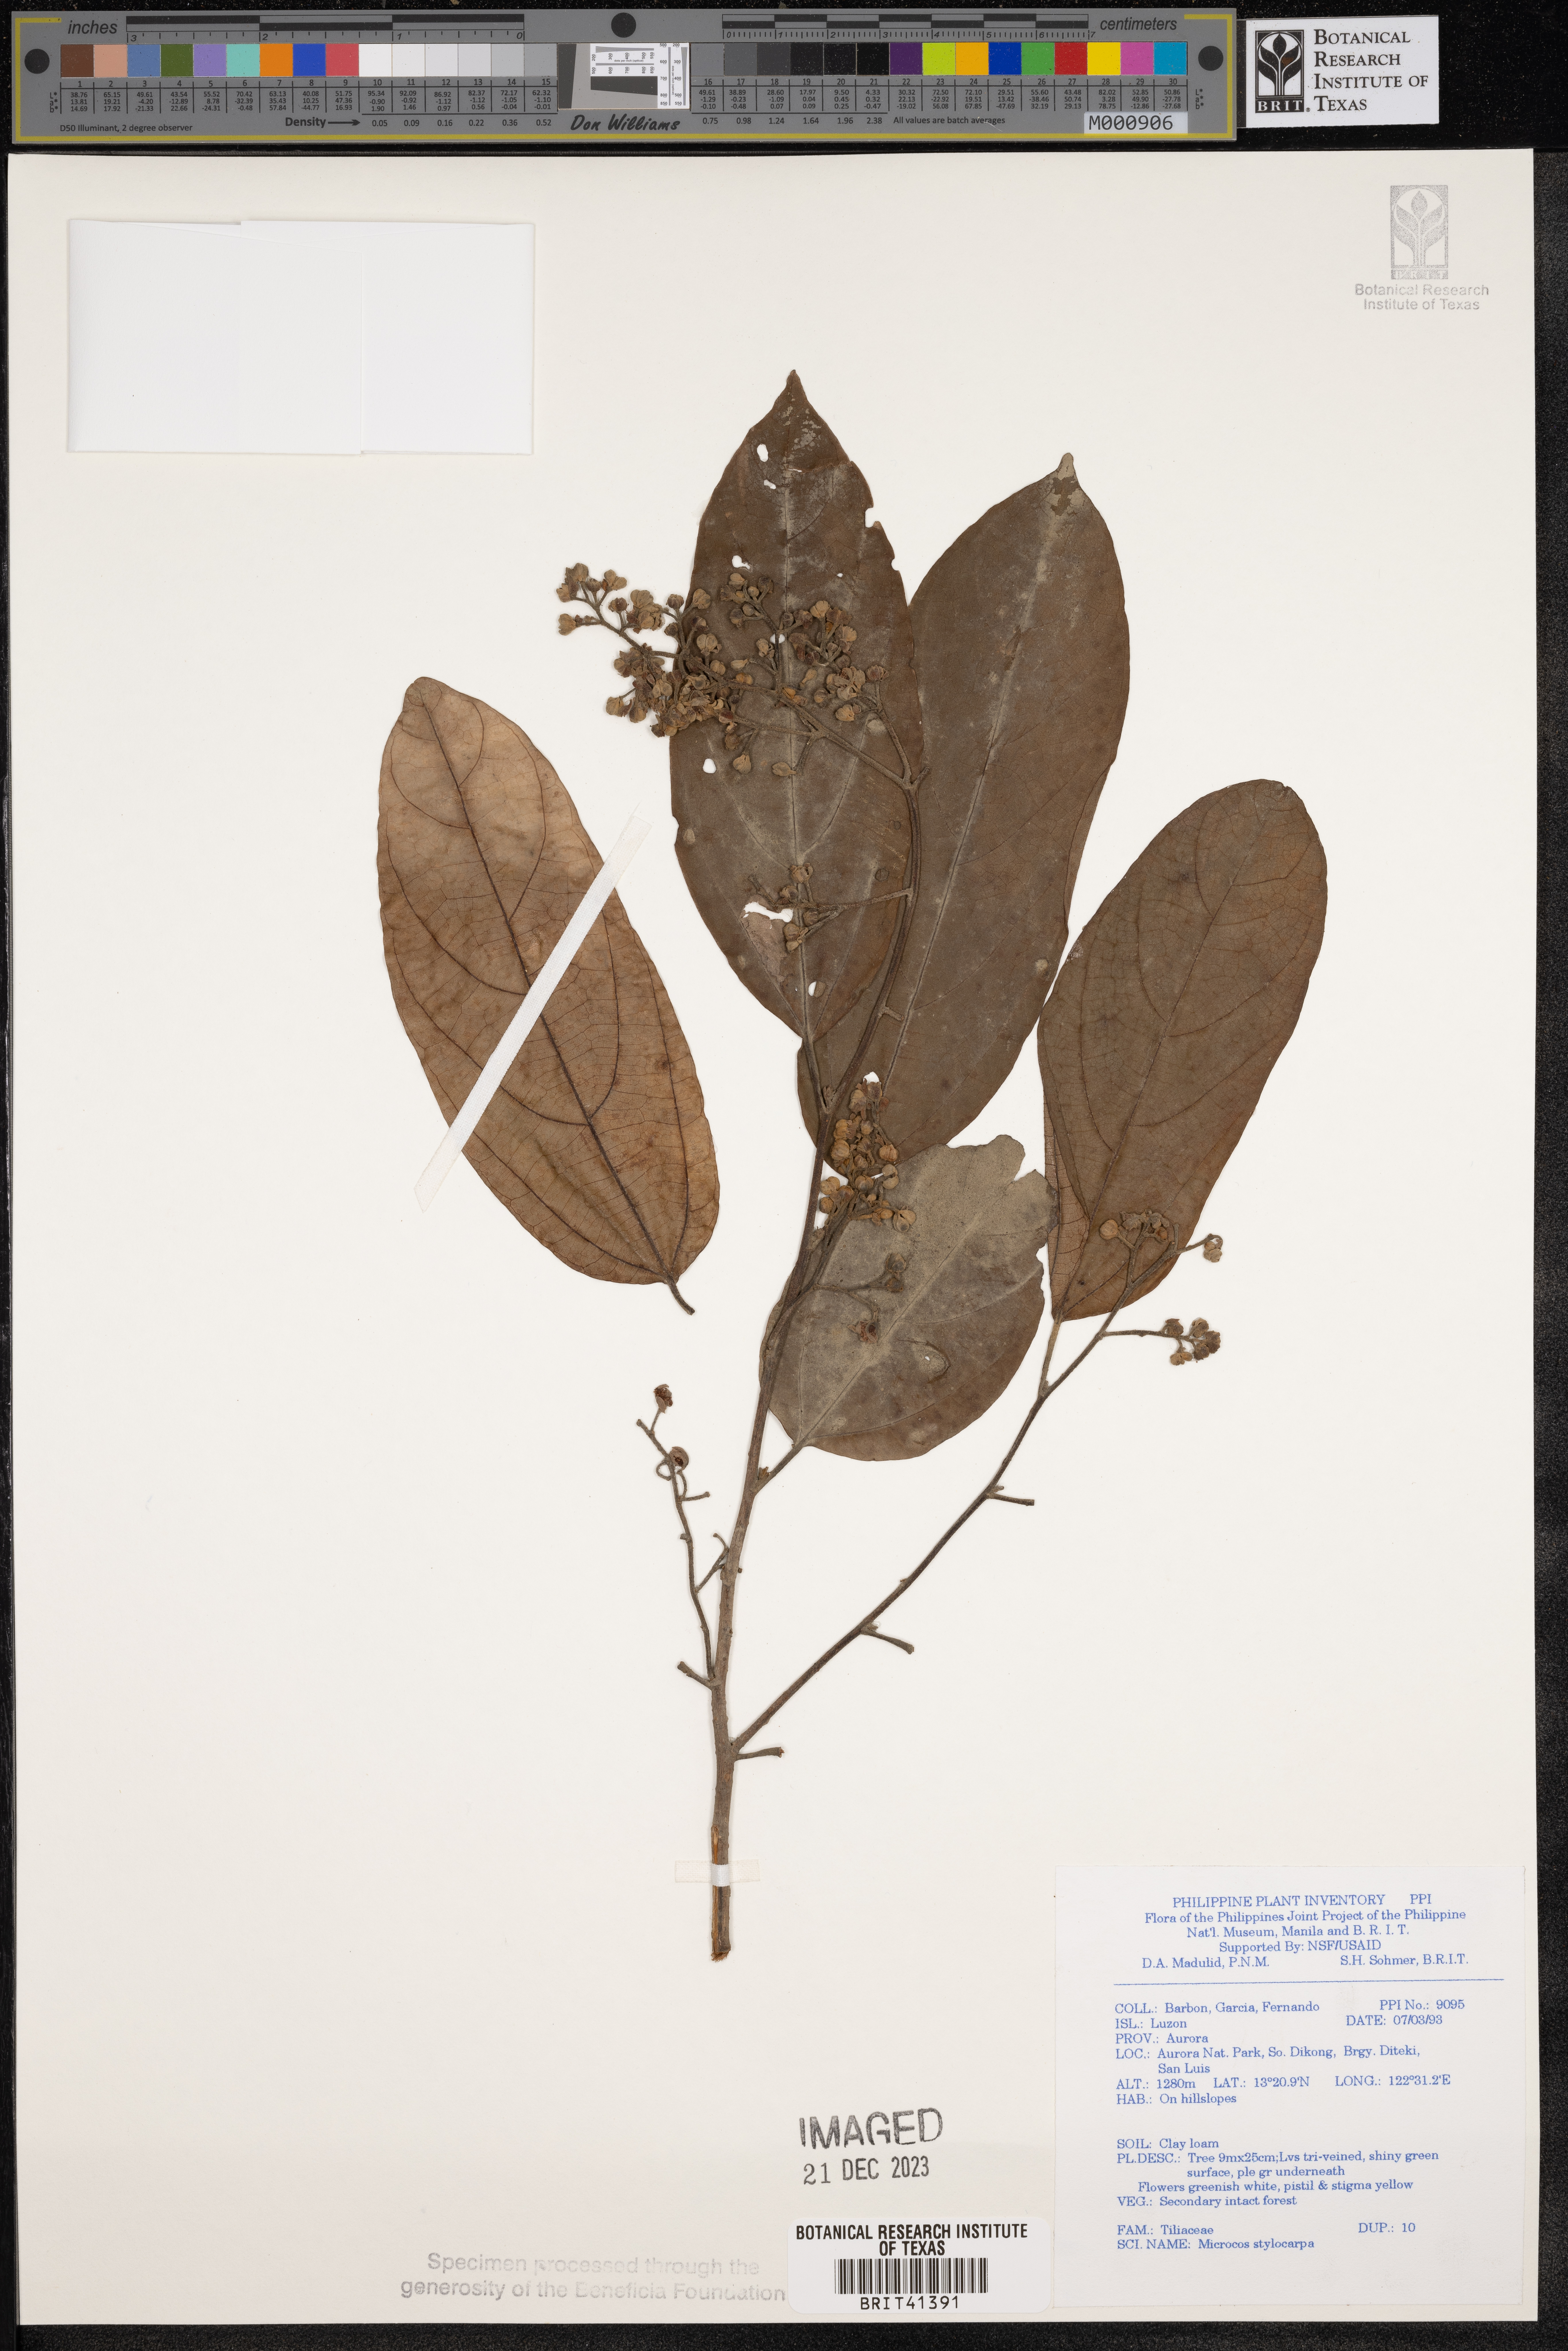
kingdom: Plantae
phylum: Tracheophyta
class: Magnoliopsida
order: Malvales
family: Malvaceae
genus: Microcos
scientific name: Microcos triflora
